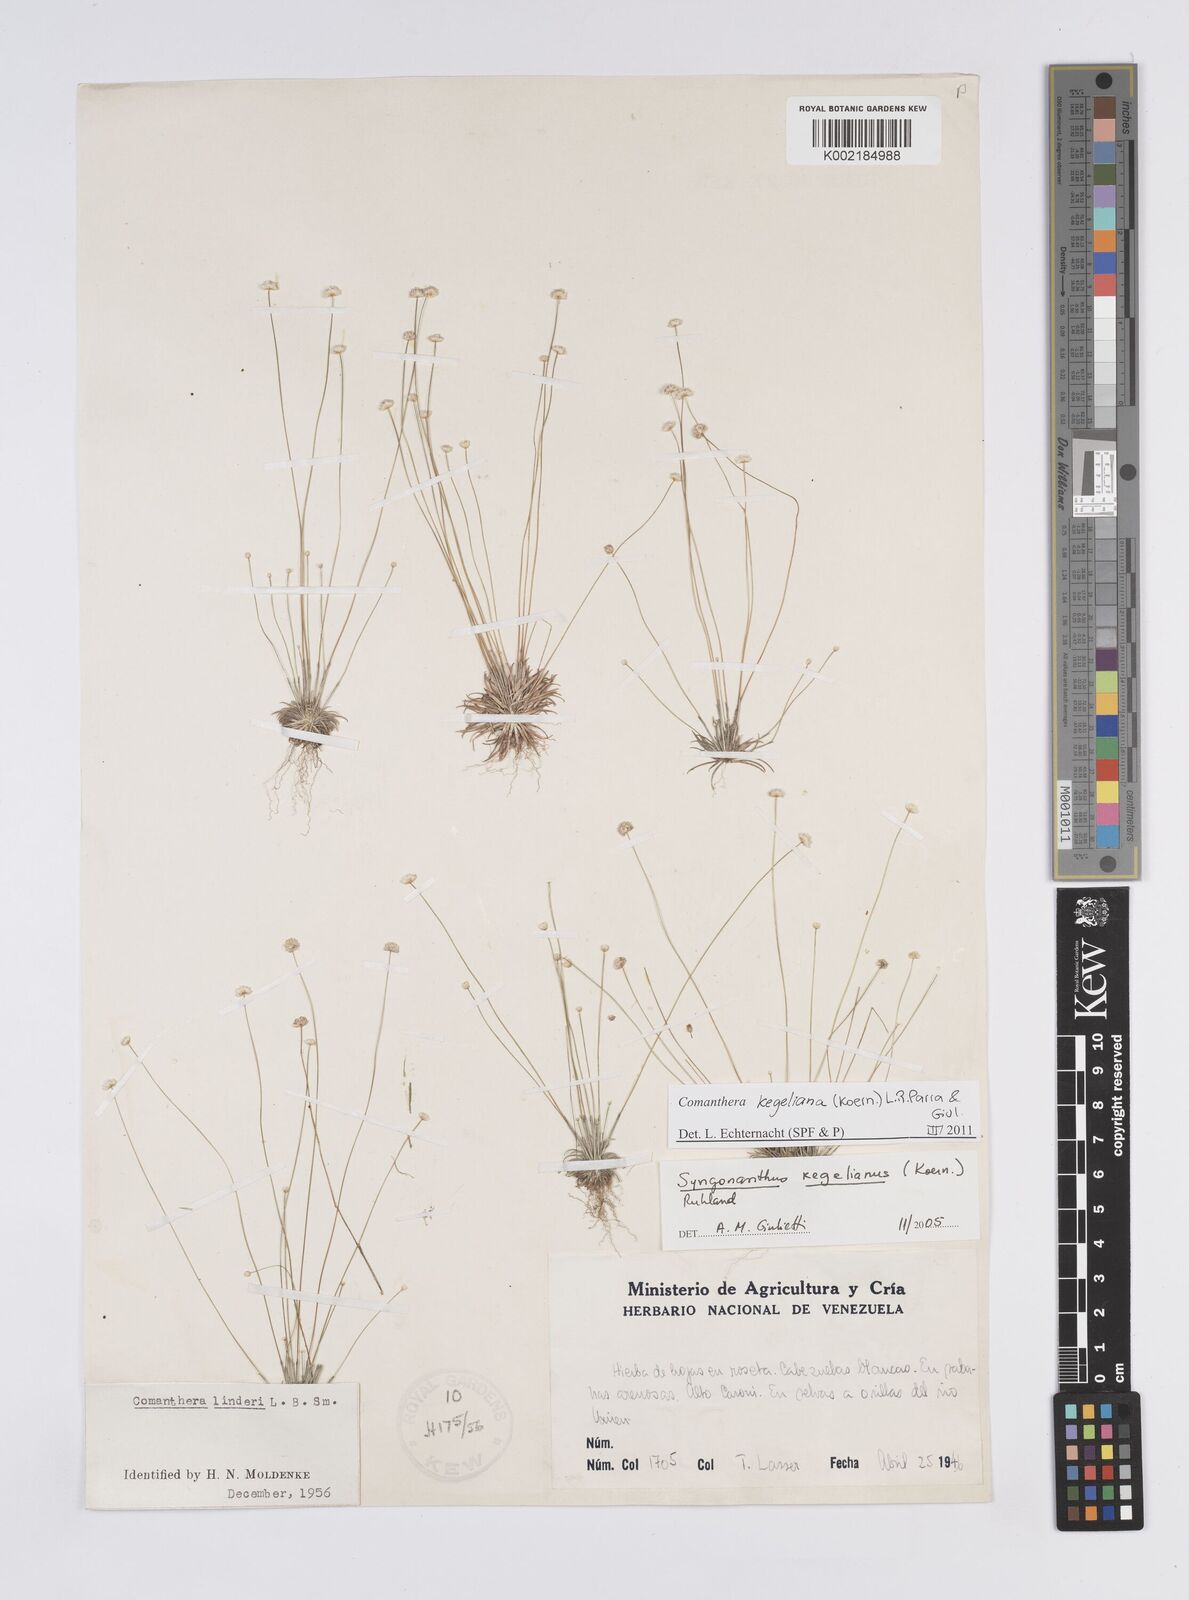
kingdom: Plantae
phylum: Tracheophyta
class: Liliopsida
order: Poales
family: Eriocaulaceae
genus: Comanthera
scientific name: Comanthera kegeliana
